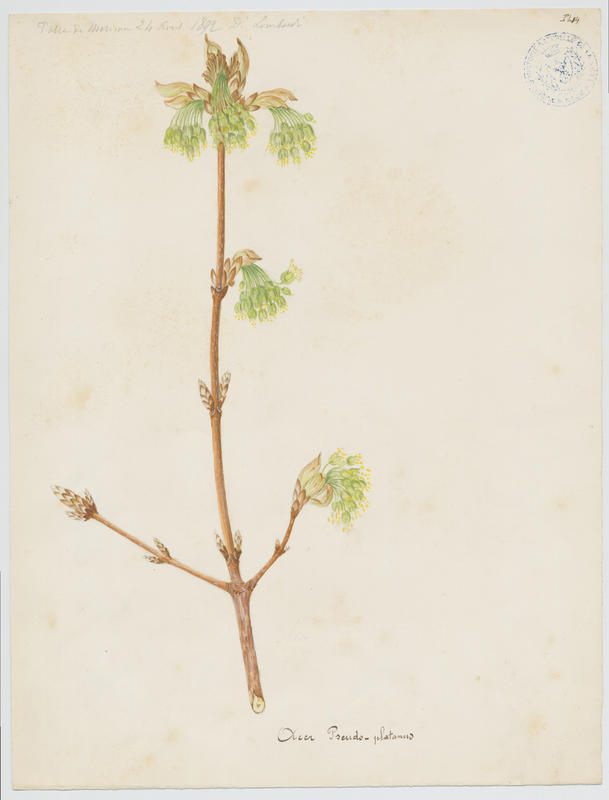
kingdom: Plantae
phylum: Tracheophyta
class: Magnoliopsida
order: Sapindales
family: Sapindaceae
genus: Acer
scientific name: Acer pseudoplatanus
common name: Sycamore
